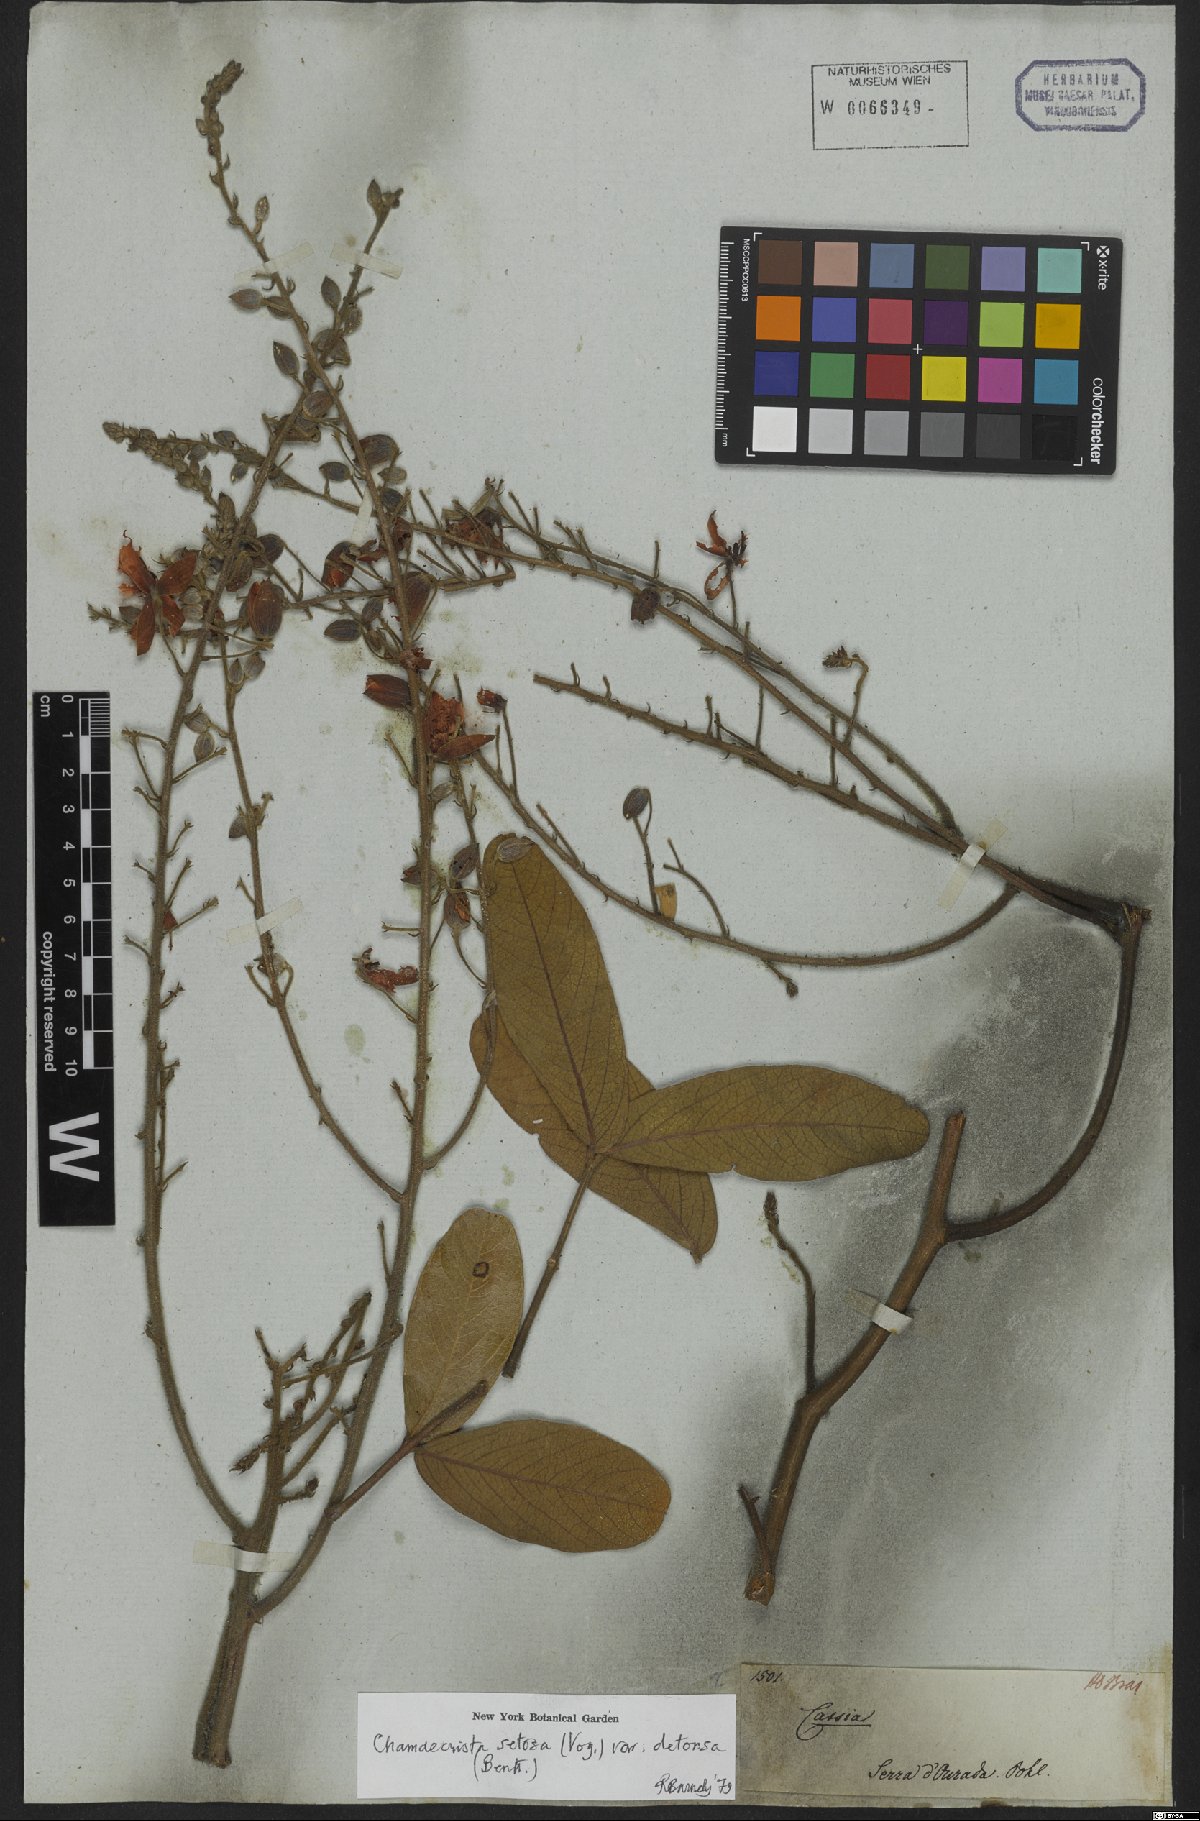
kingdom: Plantae
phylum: Tracheophyta
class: Magnoliopsida
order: Fabales
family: Fabaceae
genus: Chamaecrista
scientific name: Chamaecrista setosa
